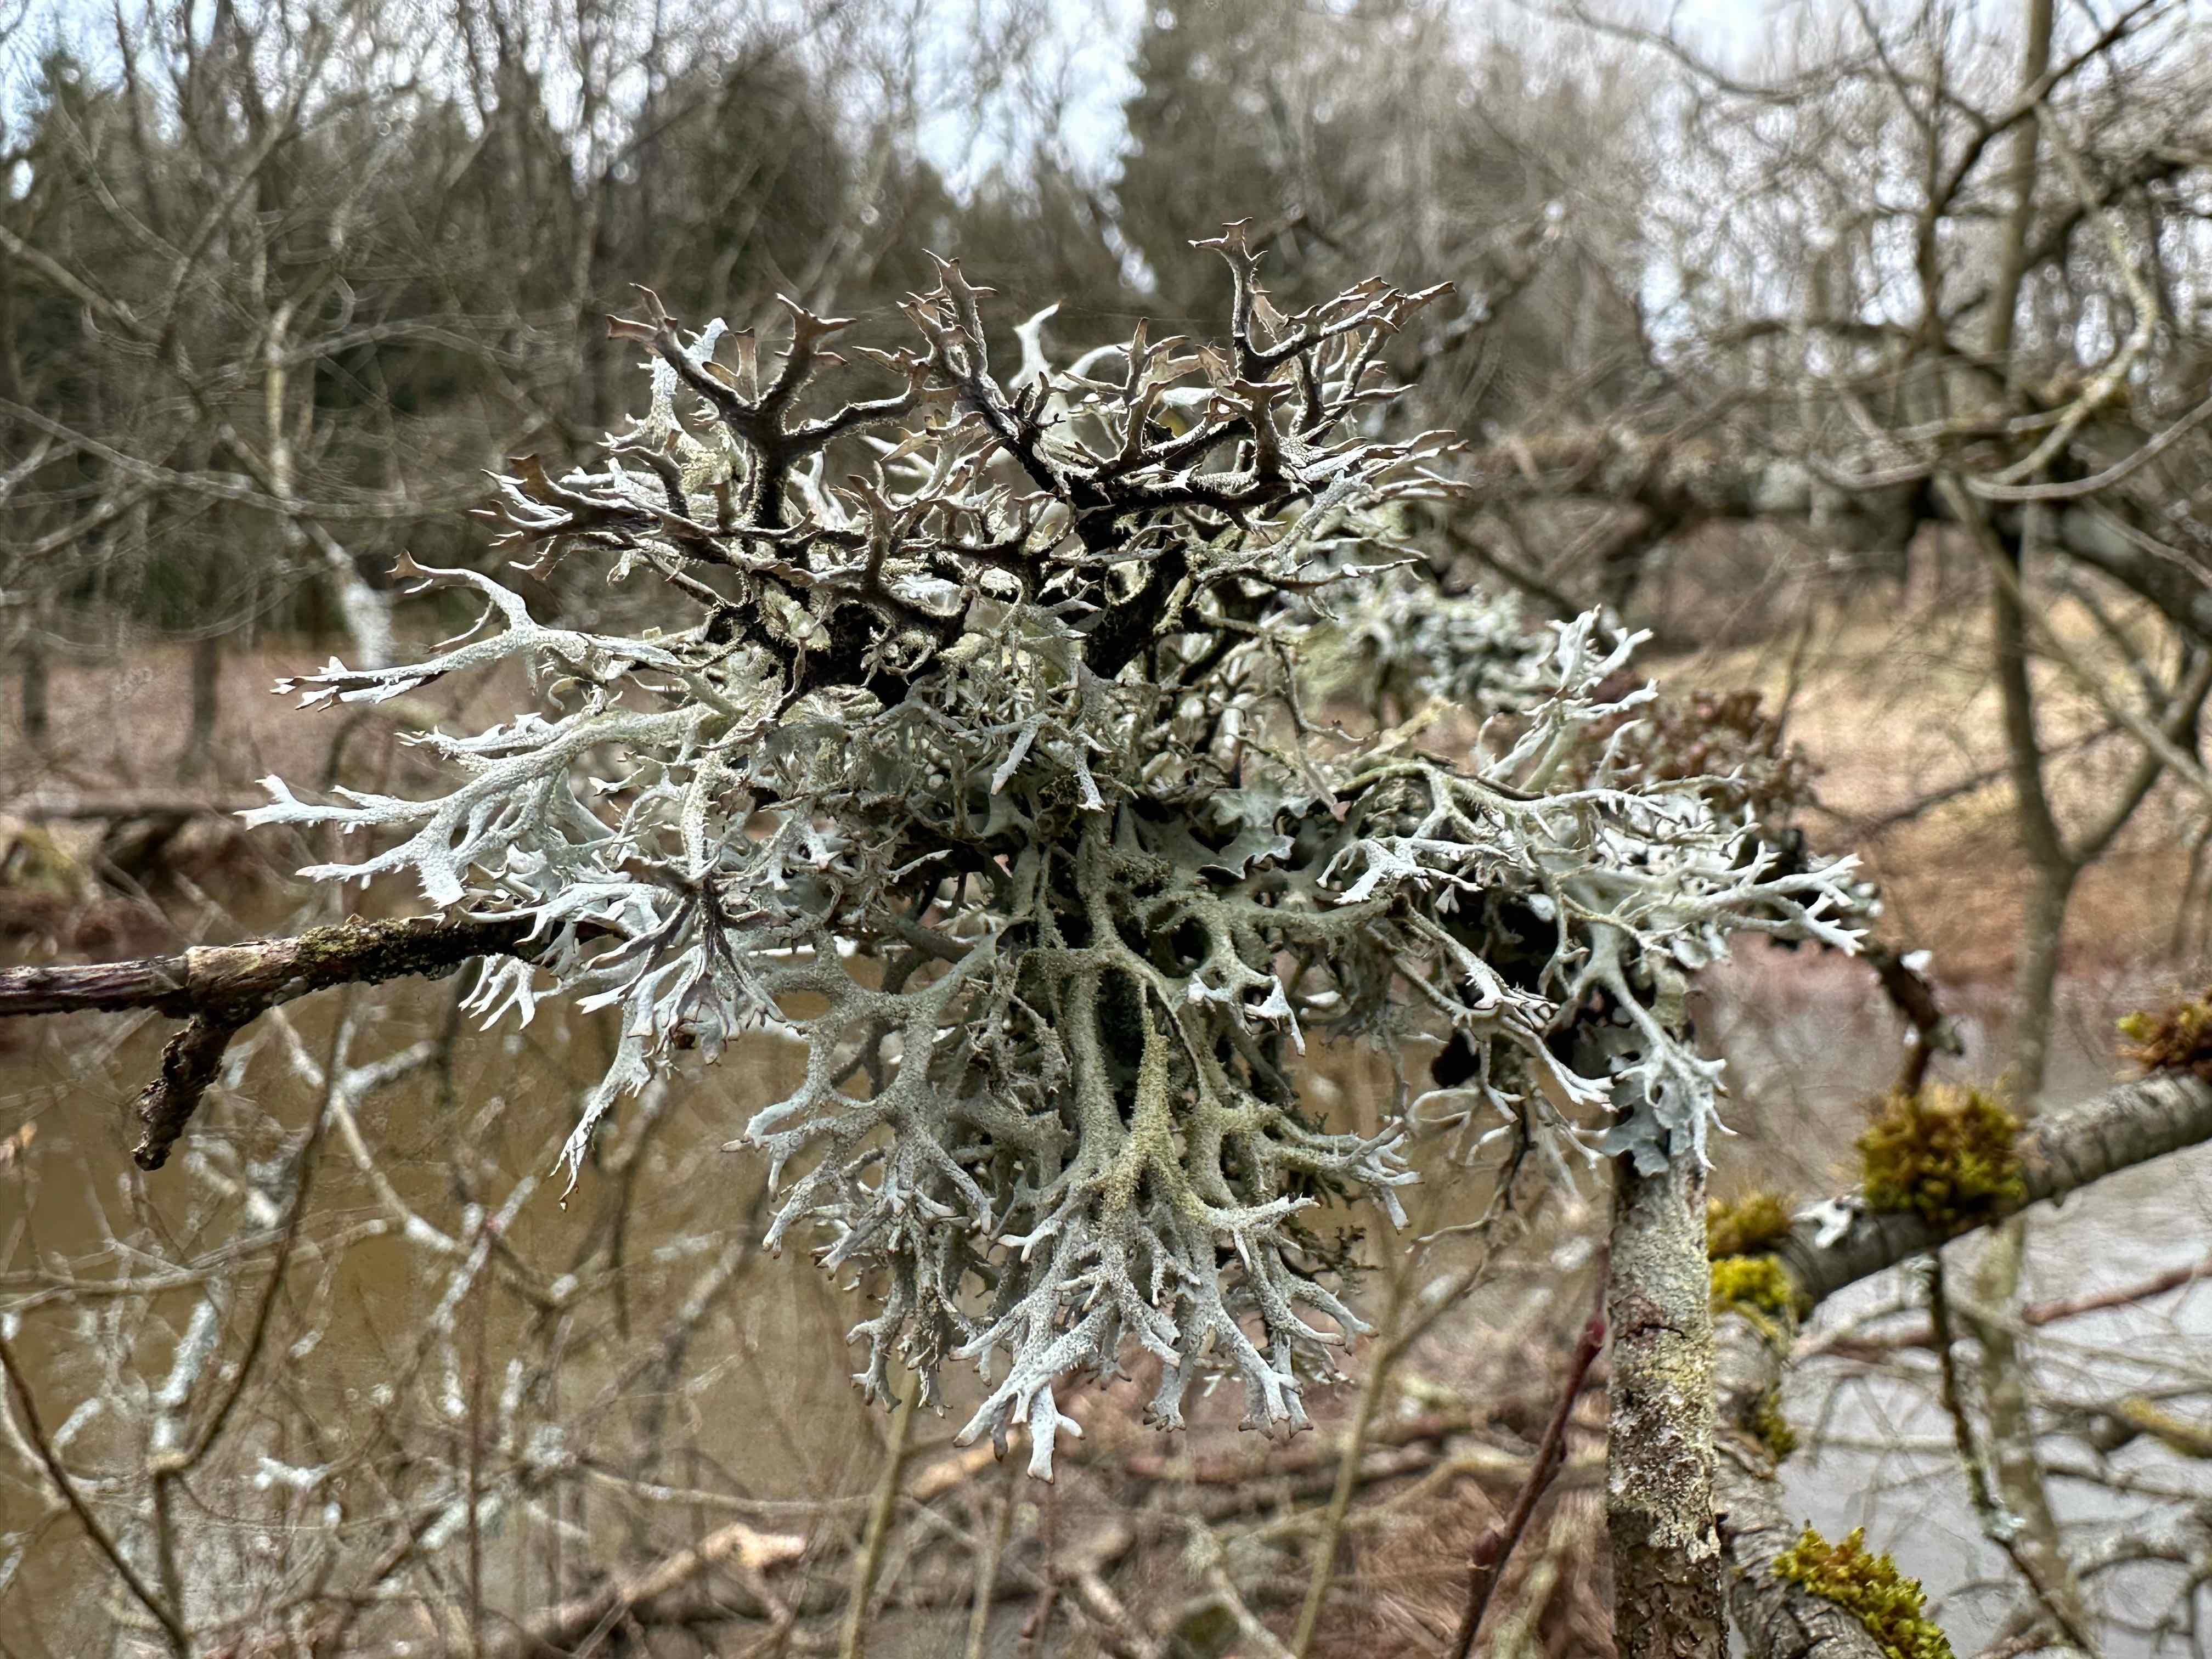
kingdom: Fungi
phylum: Ascomycota
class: Lecanoromycetes
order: Lecanorales
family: Parmeliaceae
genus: Pseudevernia
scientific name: Pseudevernia furfuracea
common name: grå fyrrelav
